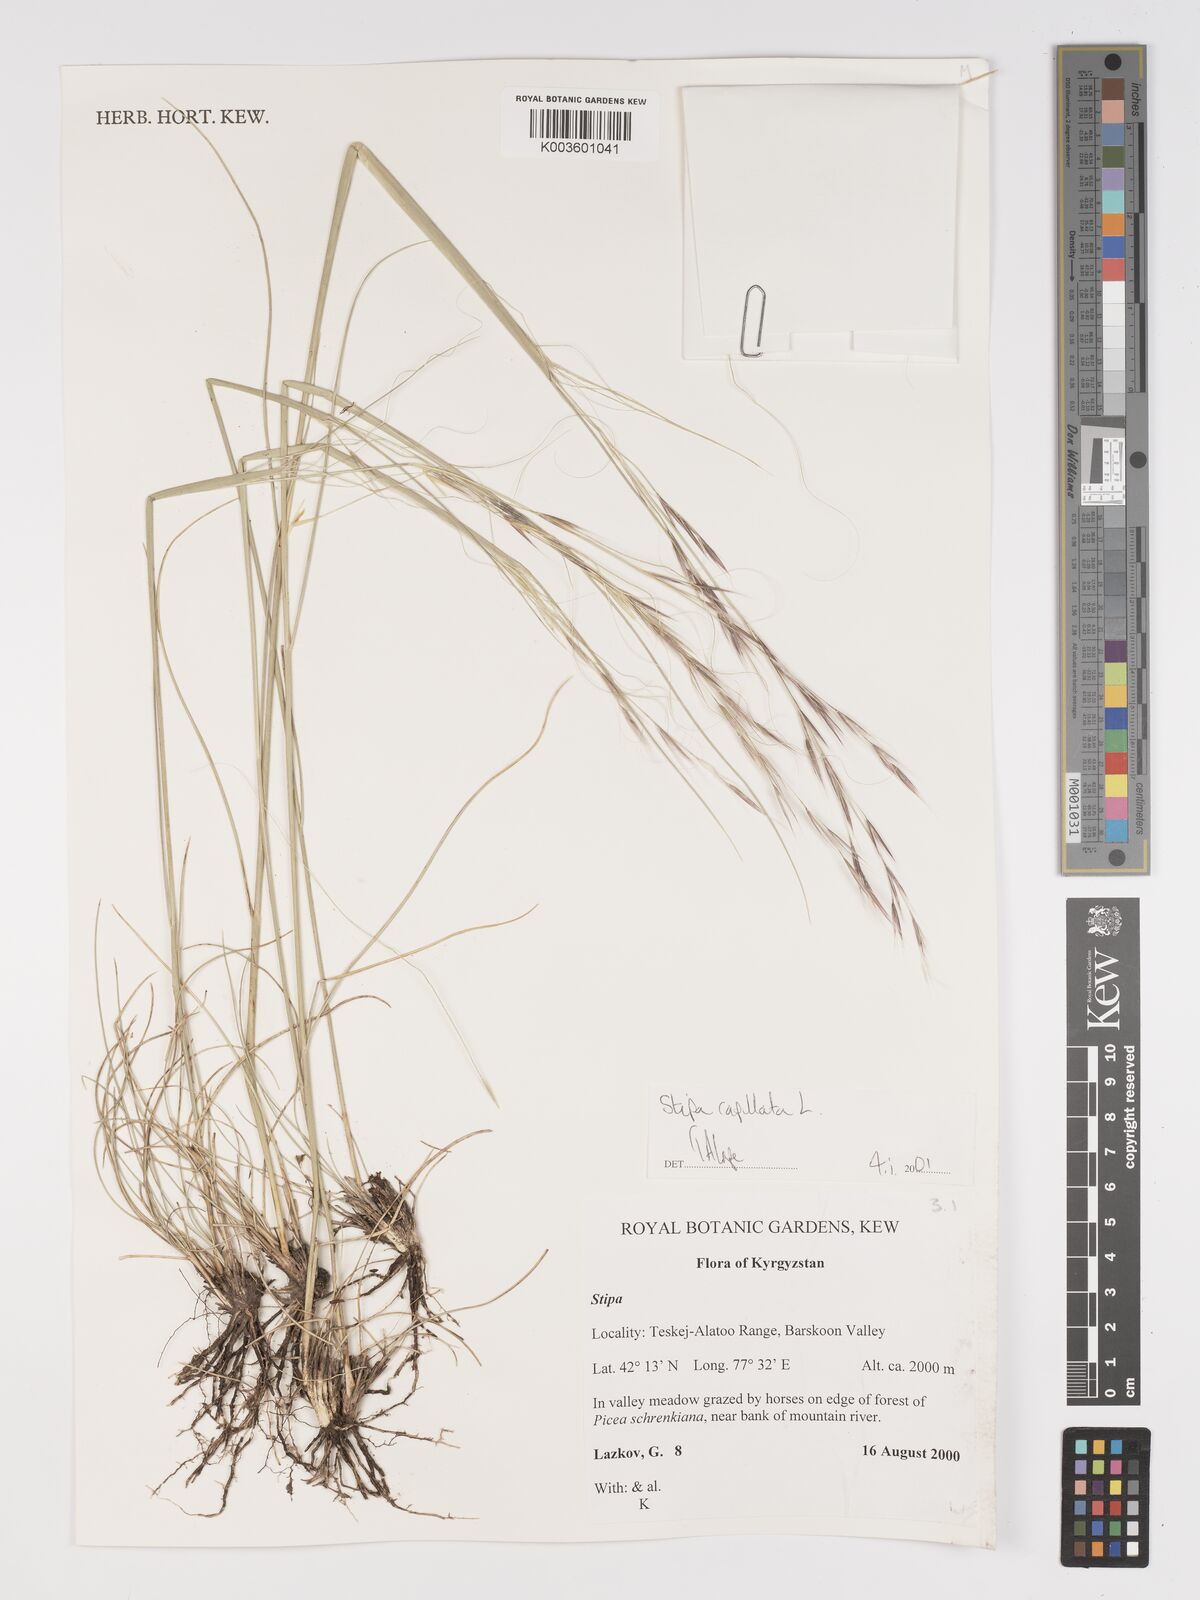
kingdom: Plantae
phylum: Tracheophyta
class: Liliopsida
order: Poales
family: Poaceae
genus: Stipa
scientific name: Stipa capillata
